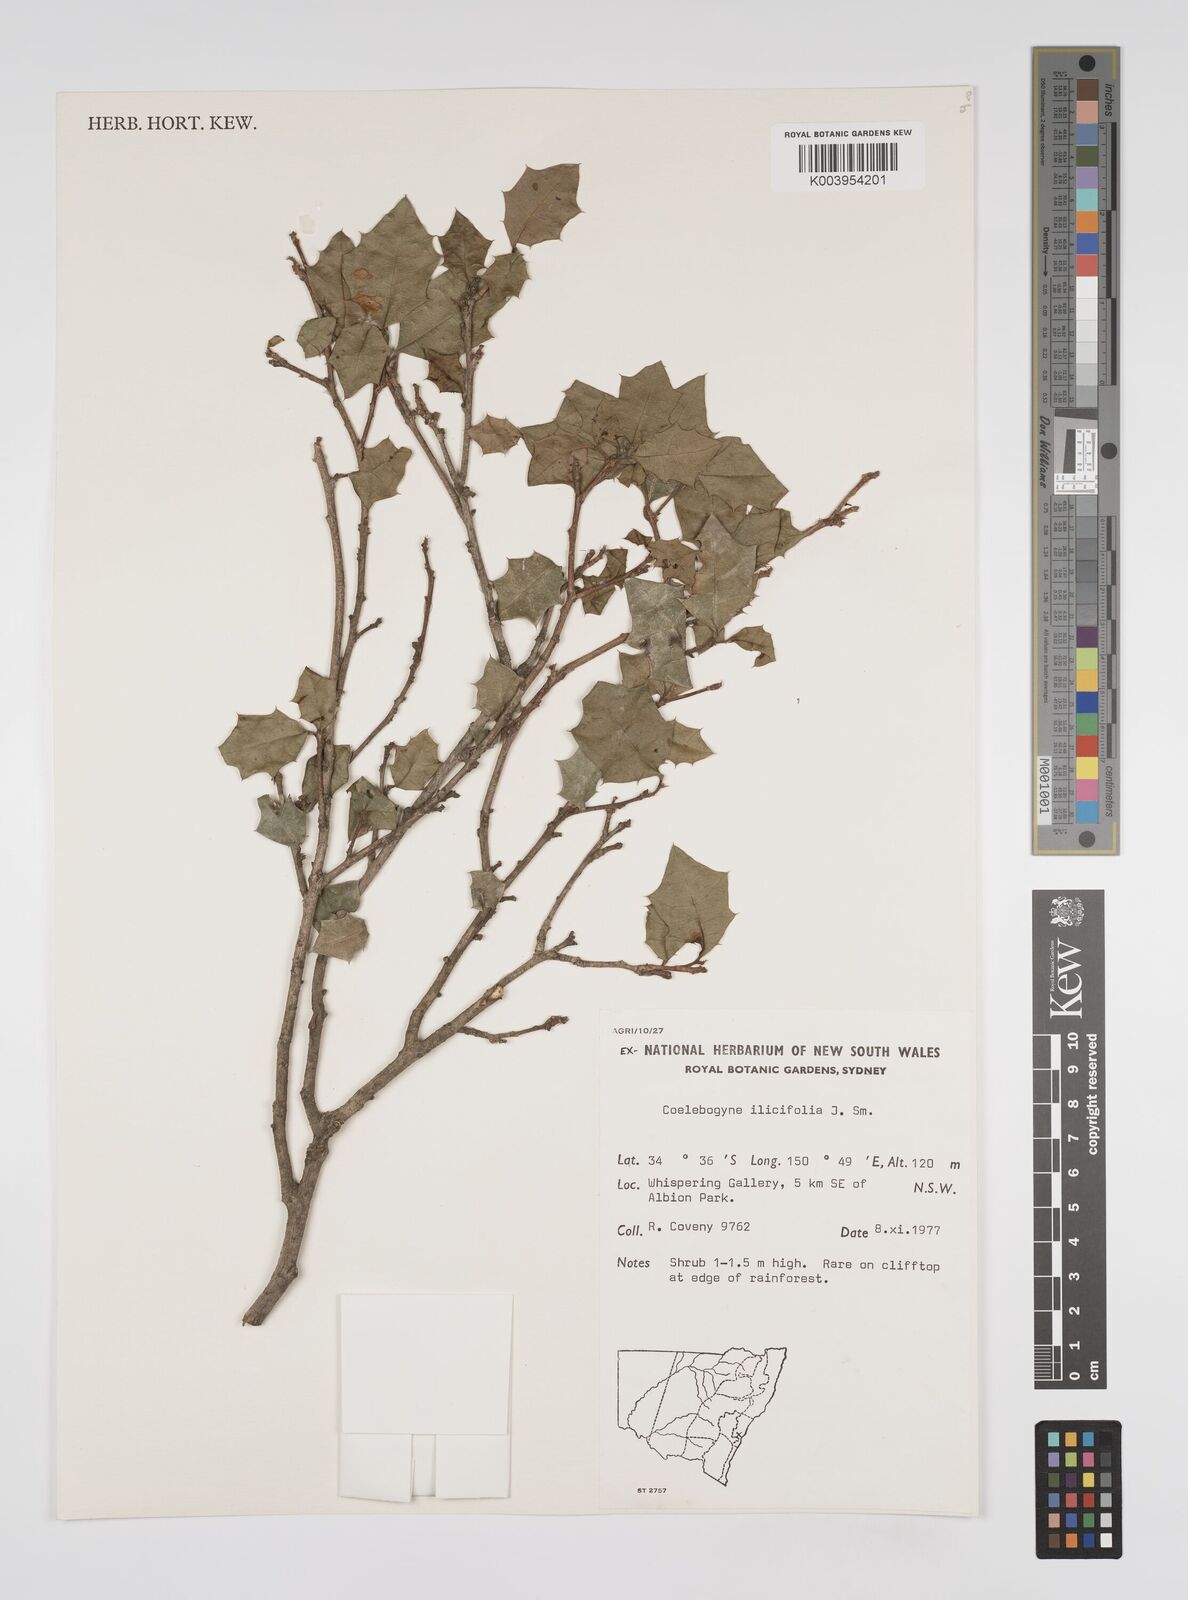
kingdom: Plantae
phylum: Tracheophyta
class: Magnoliopsida
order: Malpighiales
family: Euphorbiaceae
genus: Alchornea
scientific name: Alchornea ilicifolia
